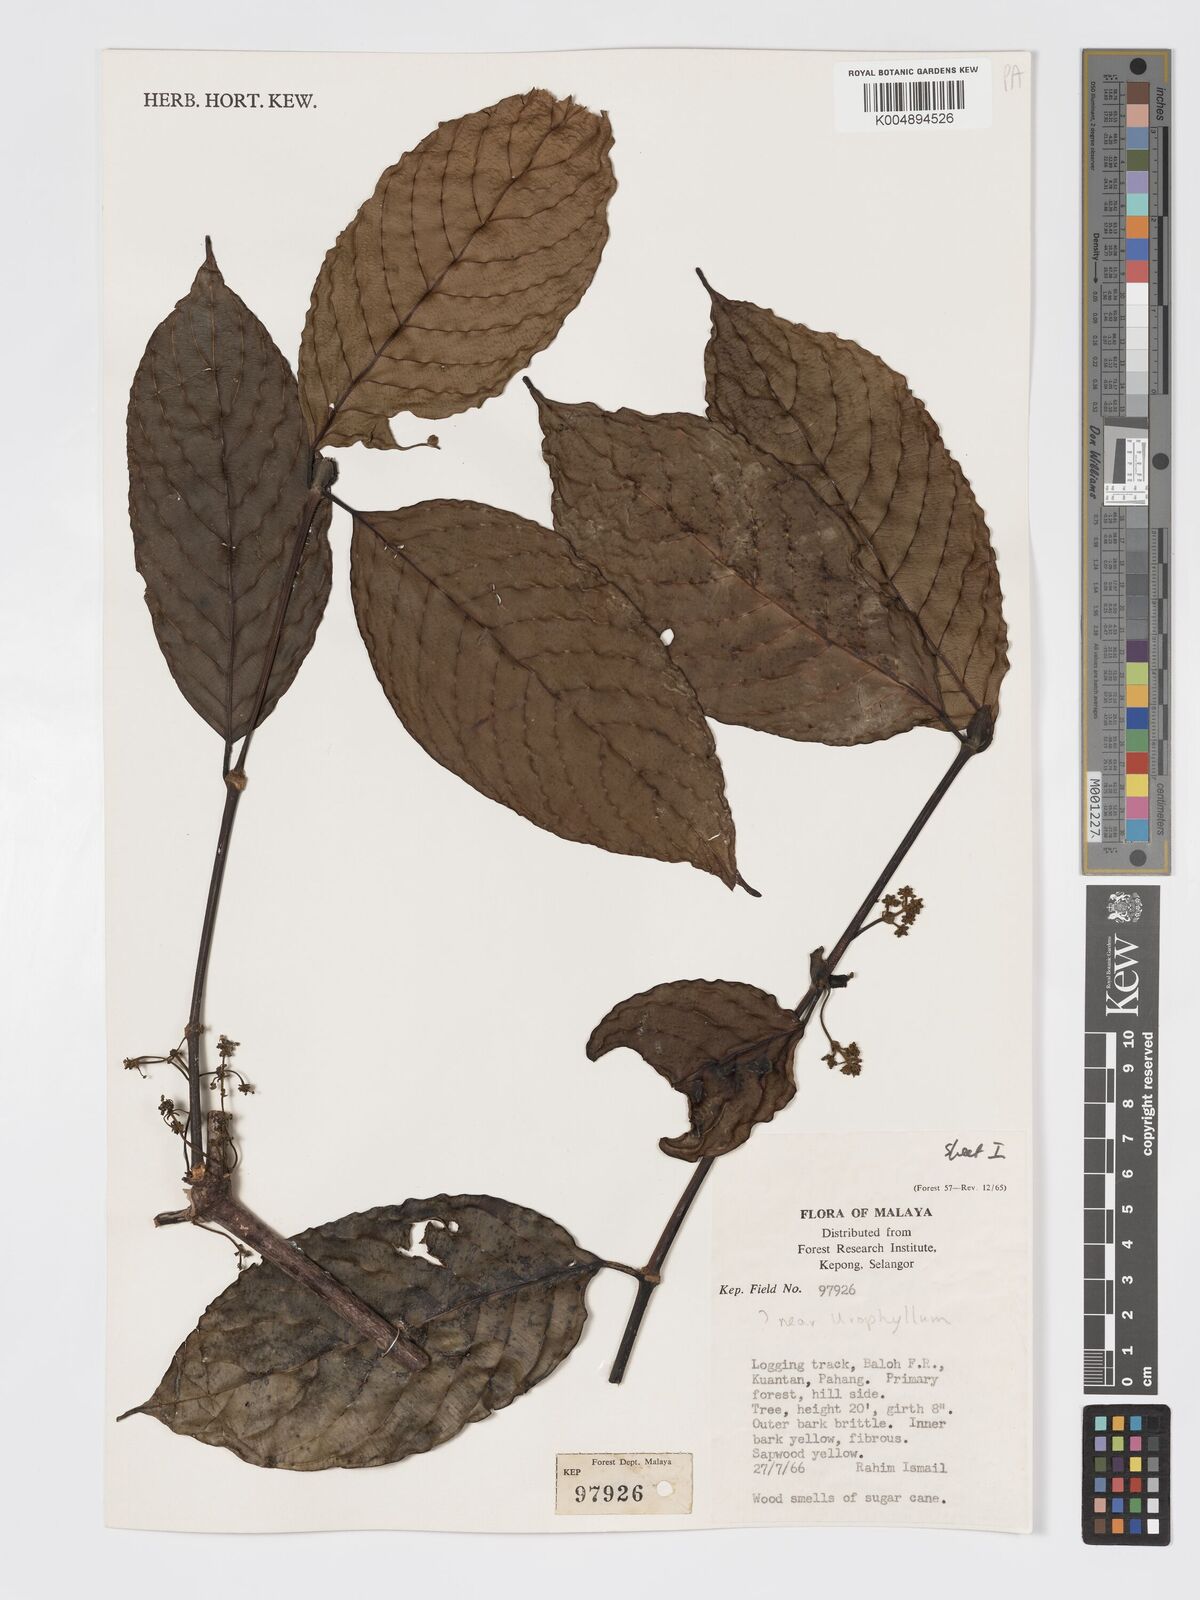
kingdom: Plantae
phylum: Tracheophyta
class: Magnoliopsida
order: Gentianales
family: Rubiaceae
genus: Urophyllum
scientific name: Urophyllum malayense
